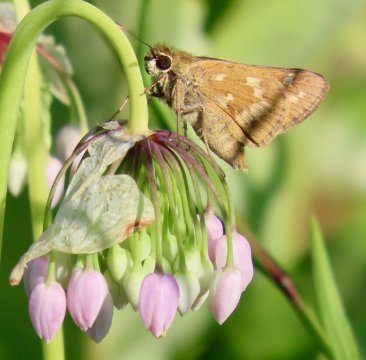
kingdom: Animalia
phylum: Arthropoda
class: Insecta
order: Lepidoptera
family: Hesperiidae
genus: Atalopedes
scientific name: Atalopedes campestris
